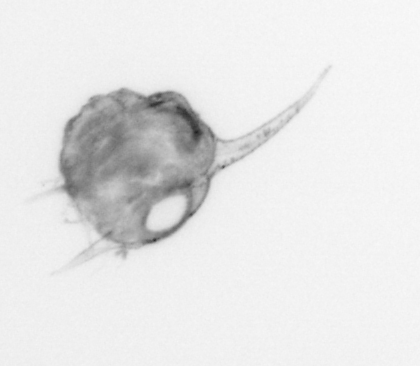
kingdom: Animalia
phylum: Arthropoda
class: Malacostraca
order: Decapoda
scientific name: Decapoda
